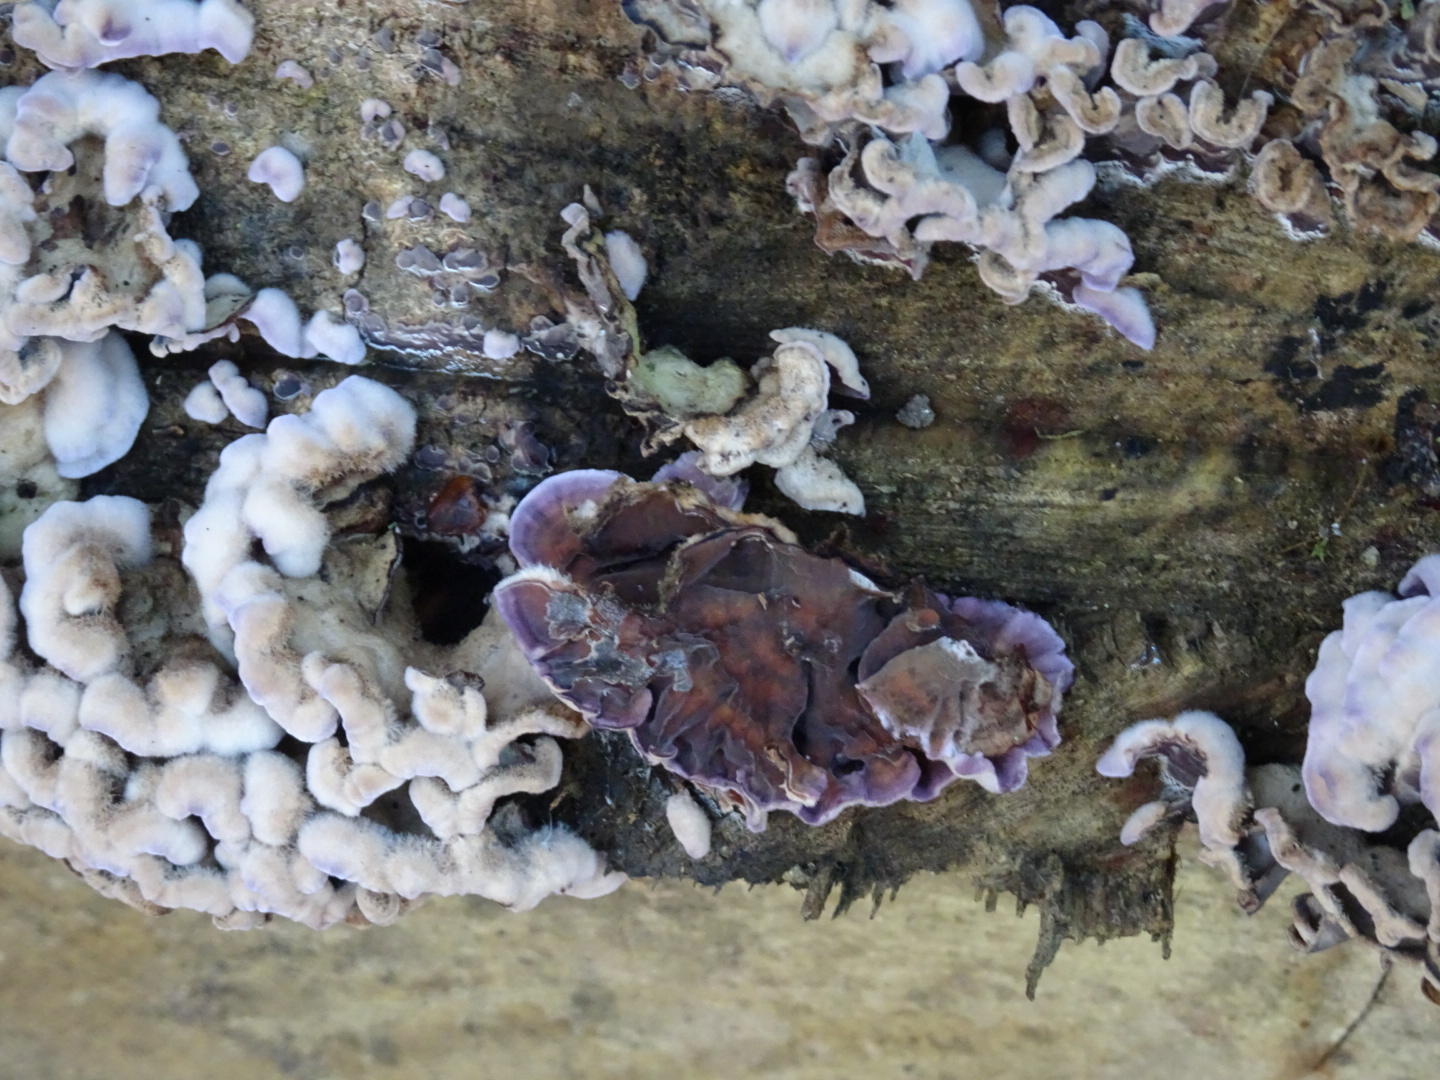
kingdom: Fungi
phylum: Basidiomycota
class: Agaricomycetes
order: Agaricales
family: Cyphellaceae
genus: Chondrostereum
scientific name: Chondrostereum purpureum
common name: purpurlædersvamp
